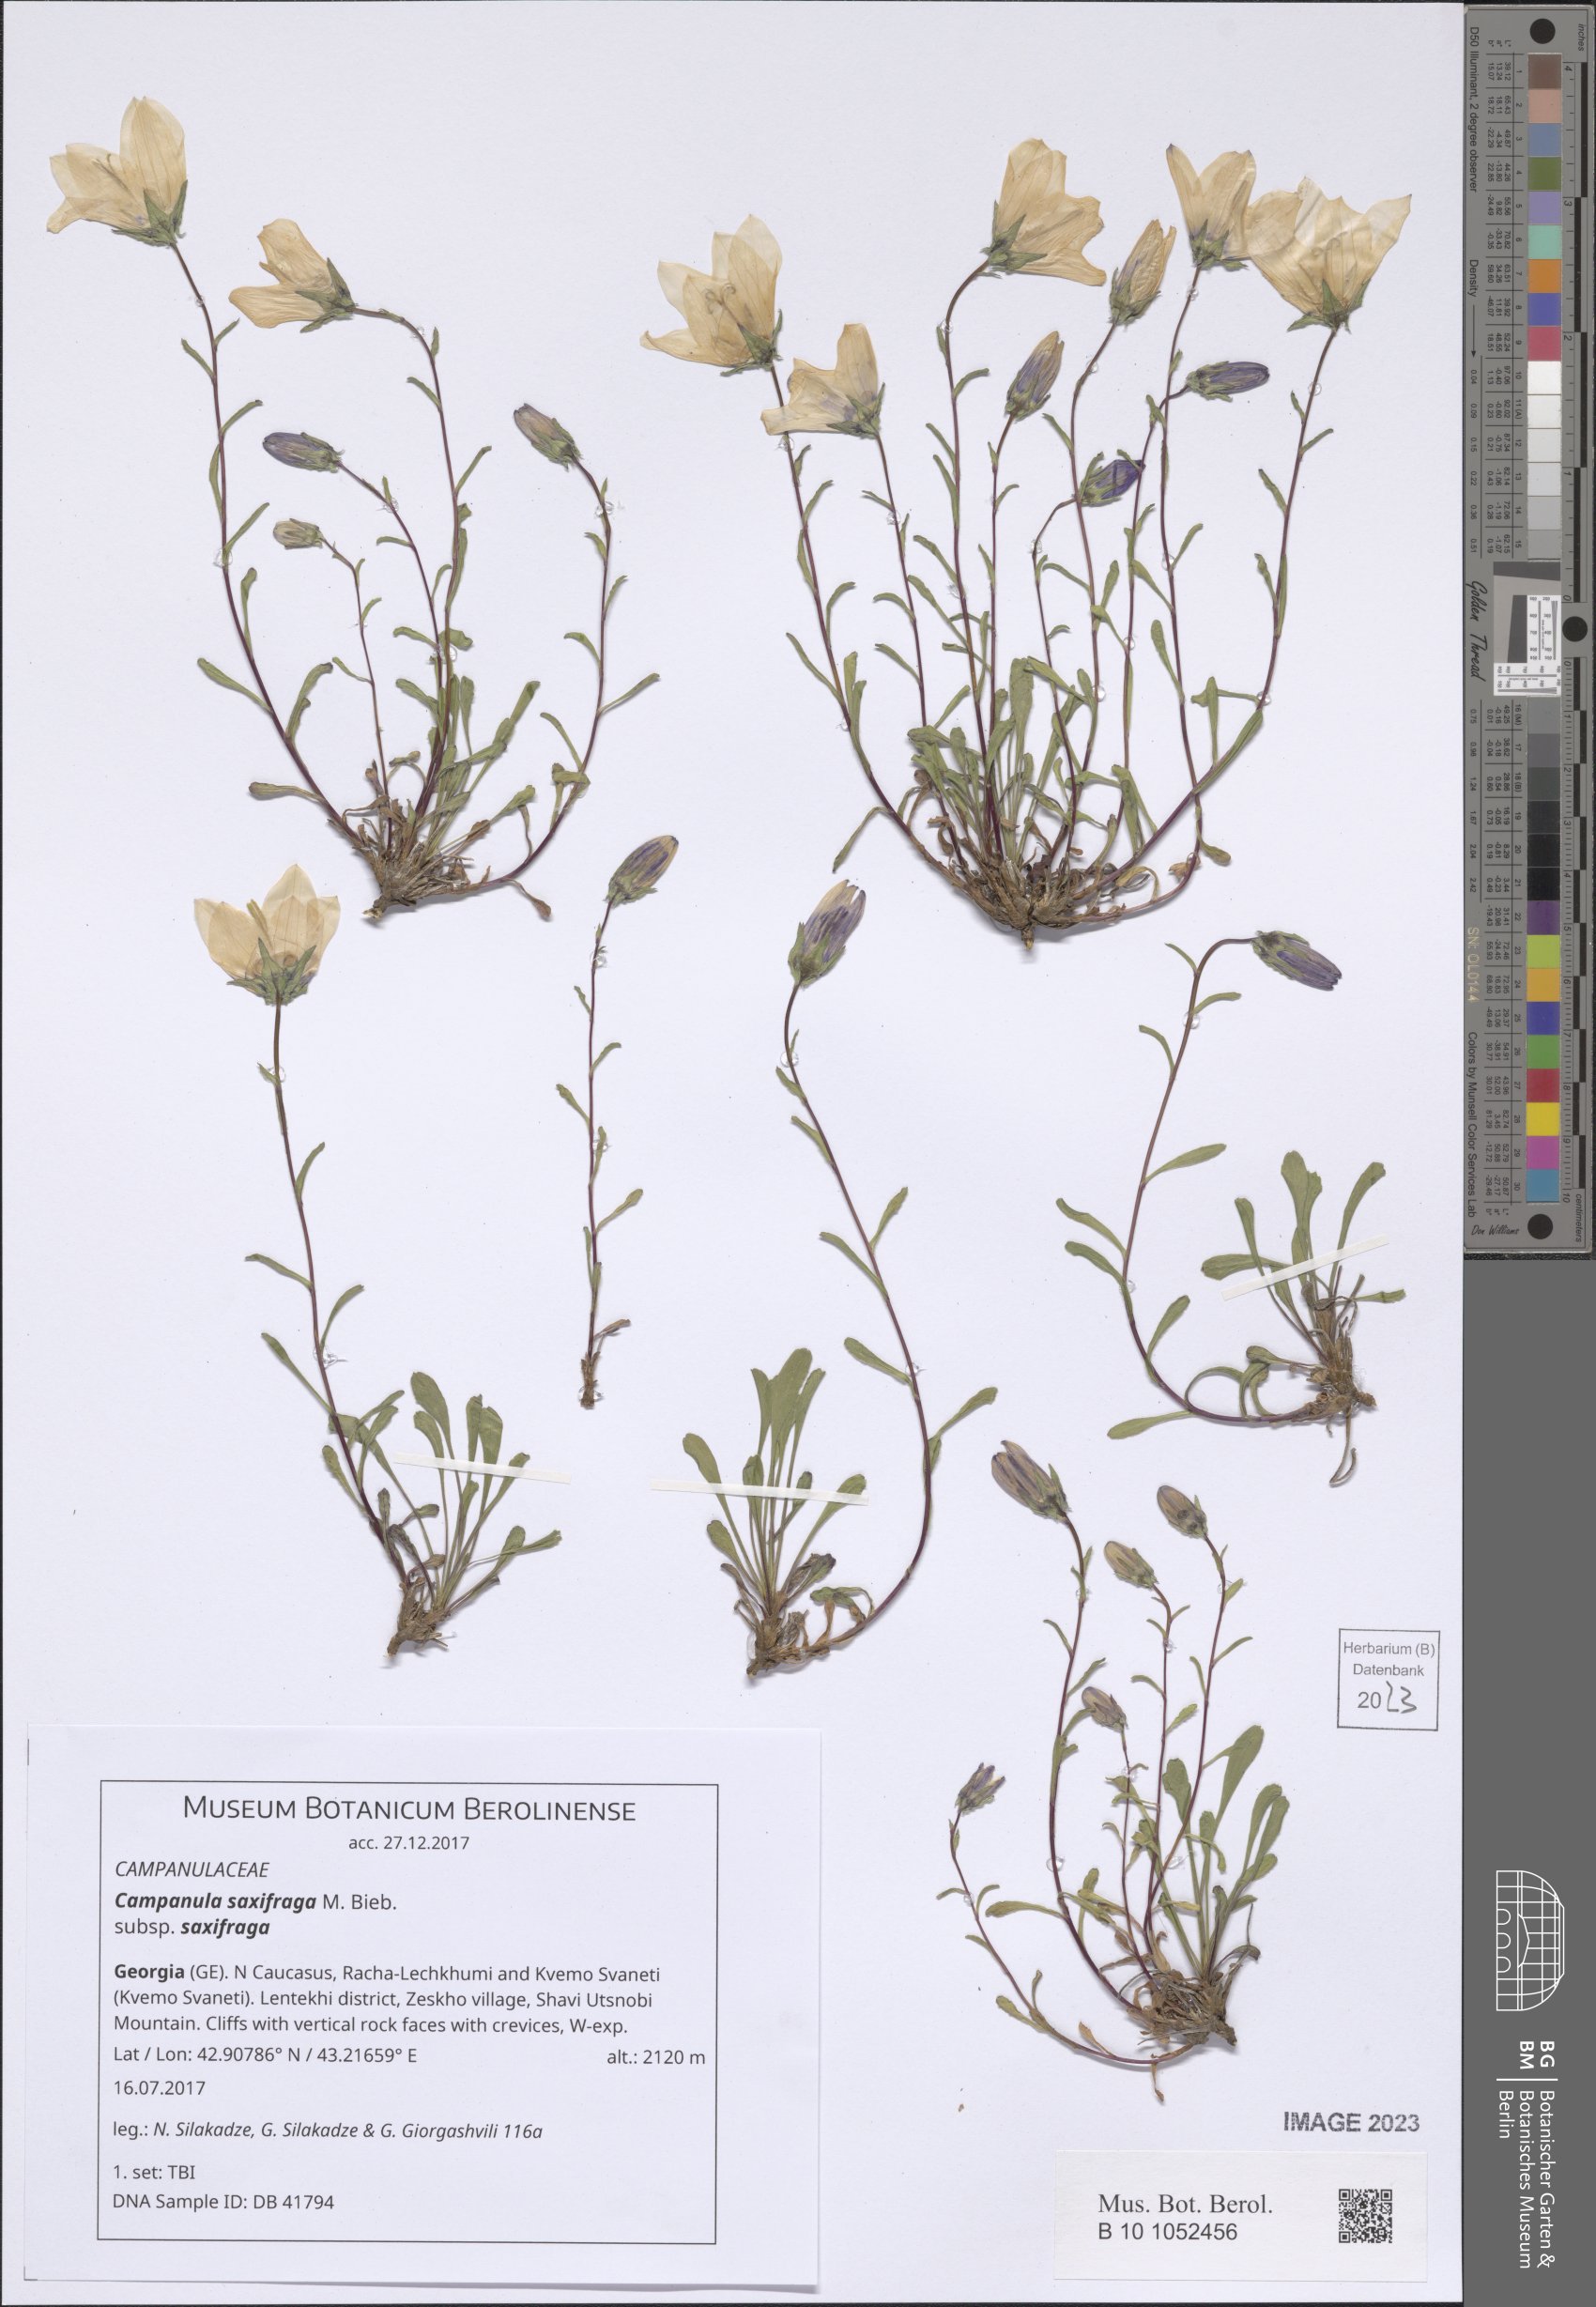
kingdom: Plantae
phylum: Tracheophyta
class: Magnoliopsida
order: Asterales
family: Campanulaceae
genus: Campanula
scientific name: Campanula saxifraga
